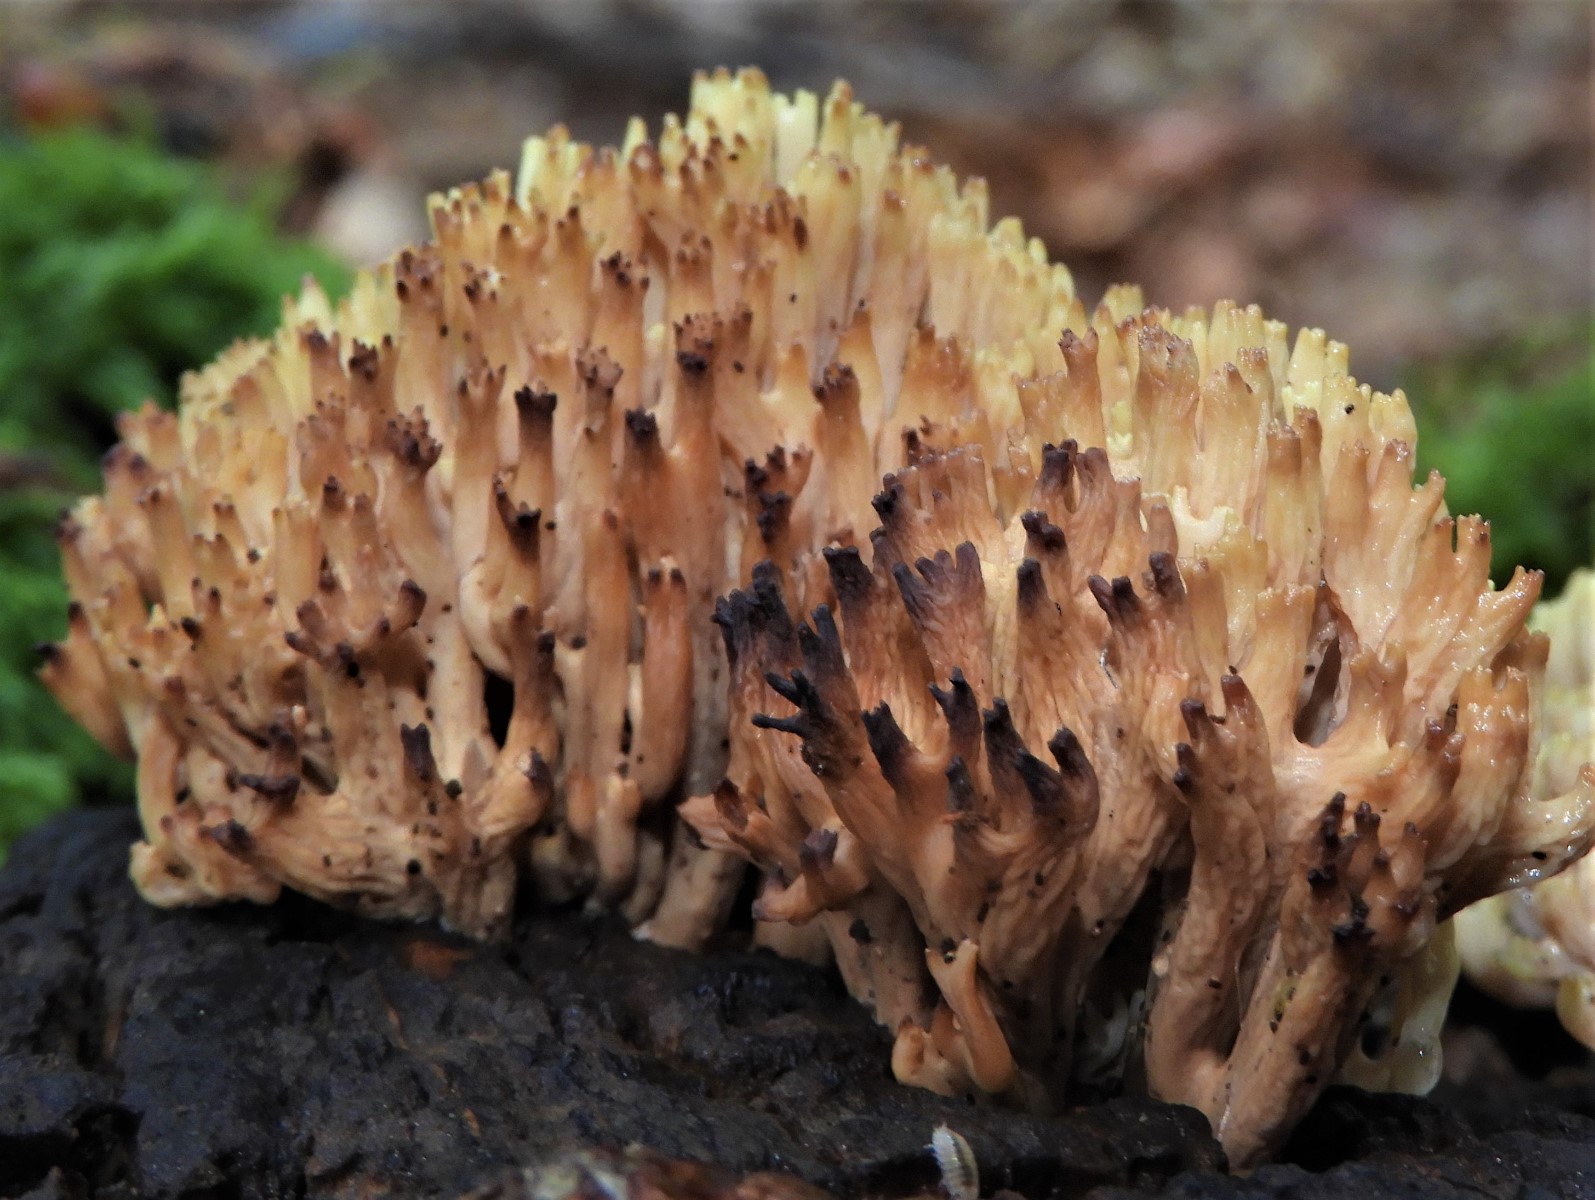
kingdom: Fungi
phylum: Basidiomycota
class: Agaricomycetes
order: Gomphales
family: Gomphaceae
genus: Ramaria
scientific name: Ramaria stricta
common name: rank koralsvamp
